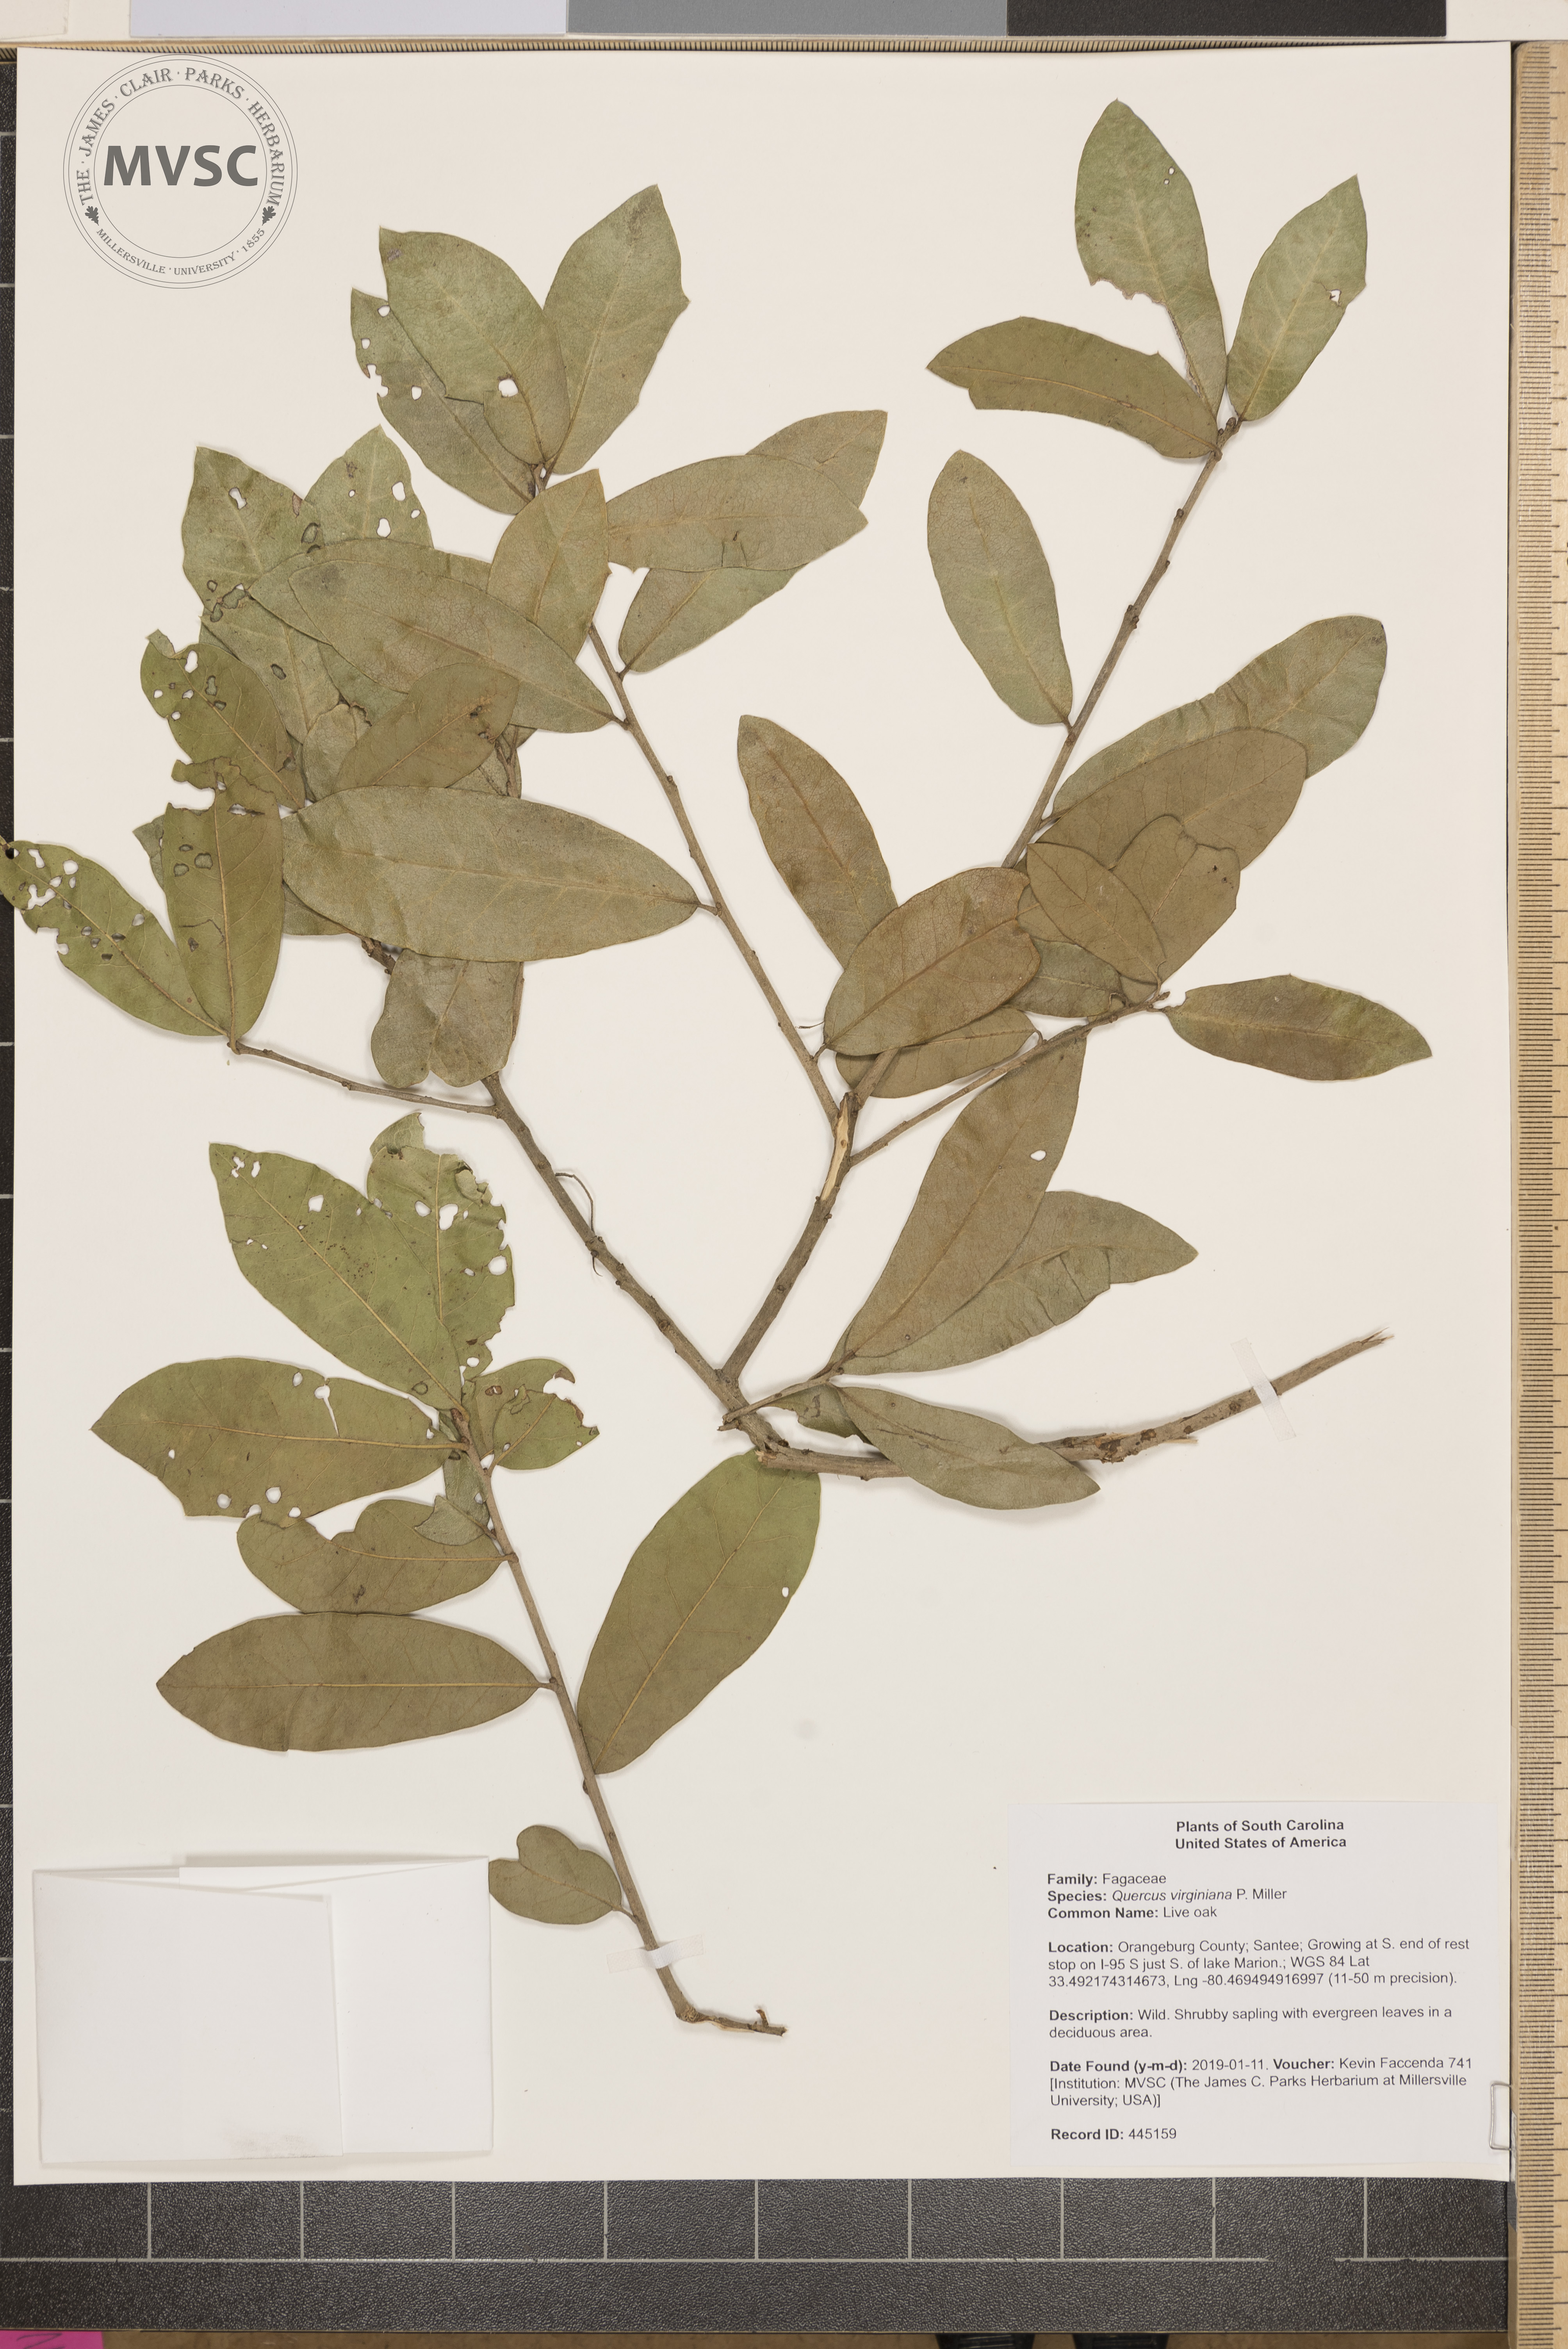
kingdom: Plantae
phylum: Tracheophyta
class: Magnoliopsida
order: Fagales
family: Fagaceae
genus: Quercus
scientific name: Quercus virginiana
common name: Live oak
